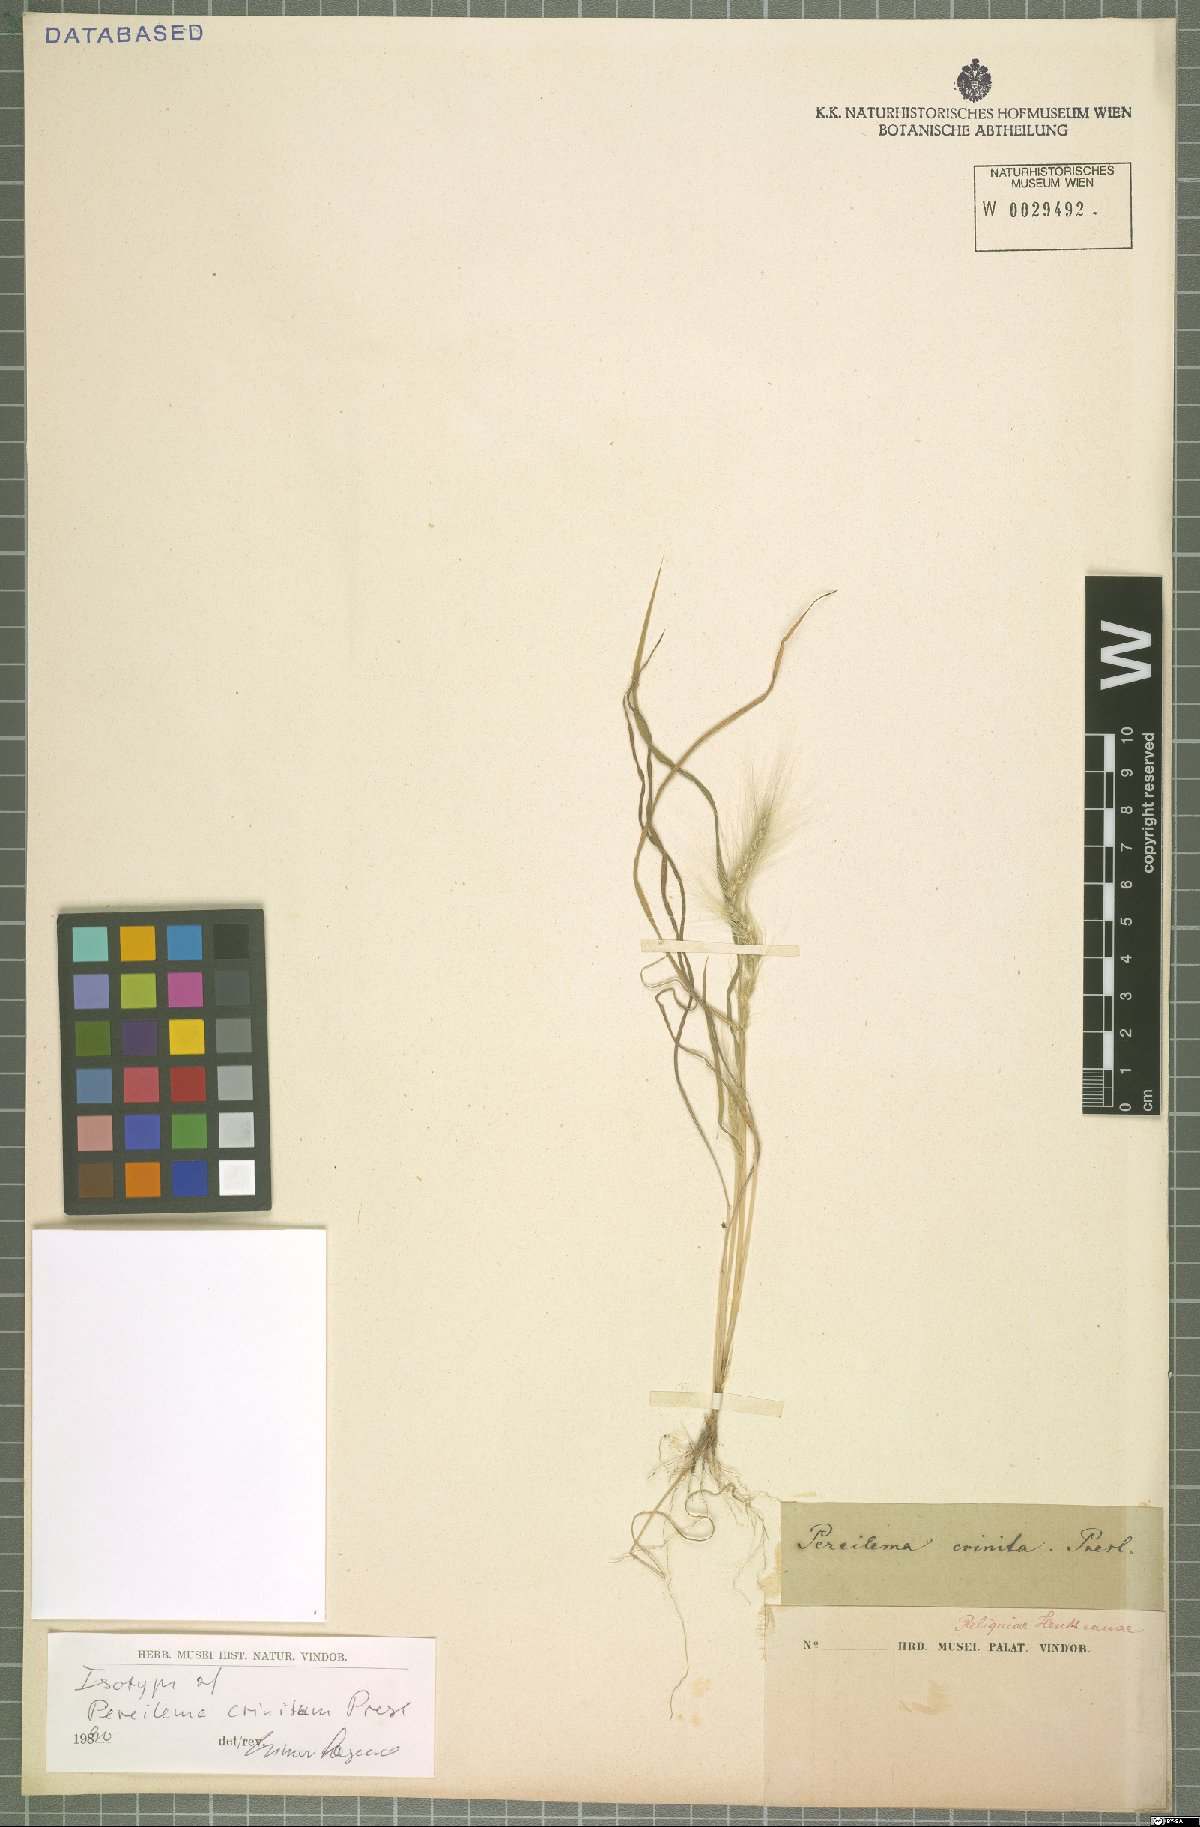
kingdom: Plantae
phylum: Tracheophyta
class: Liliopsida
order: Poales
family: Poaceae
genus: Muhlenbergia
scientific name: Muhlenbergia pereilema
